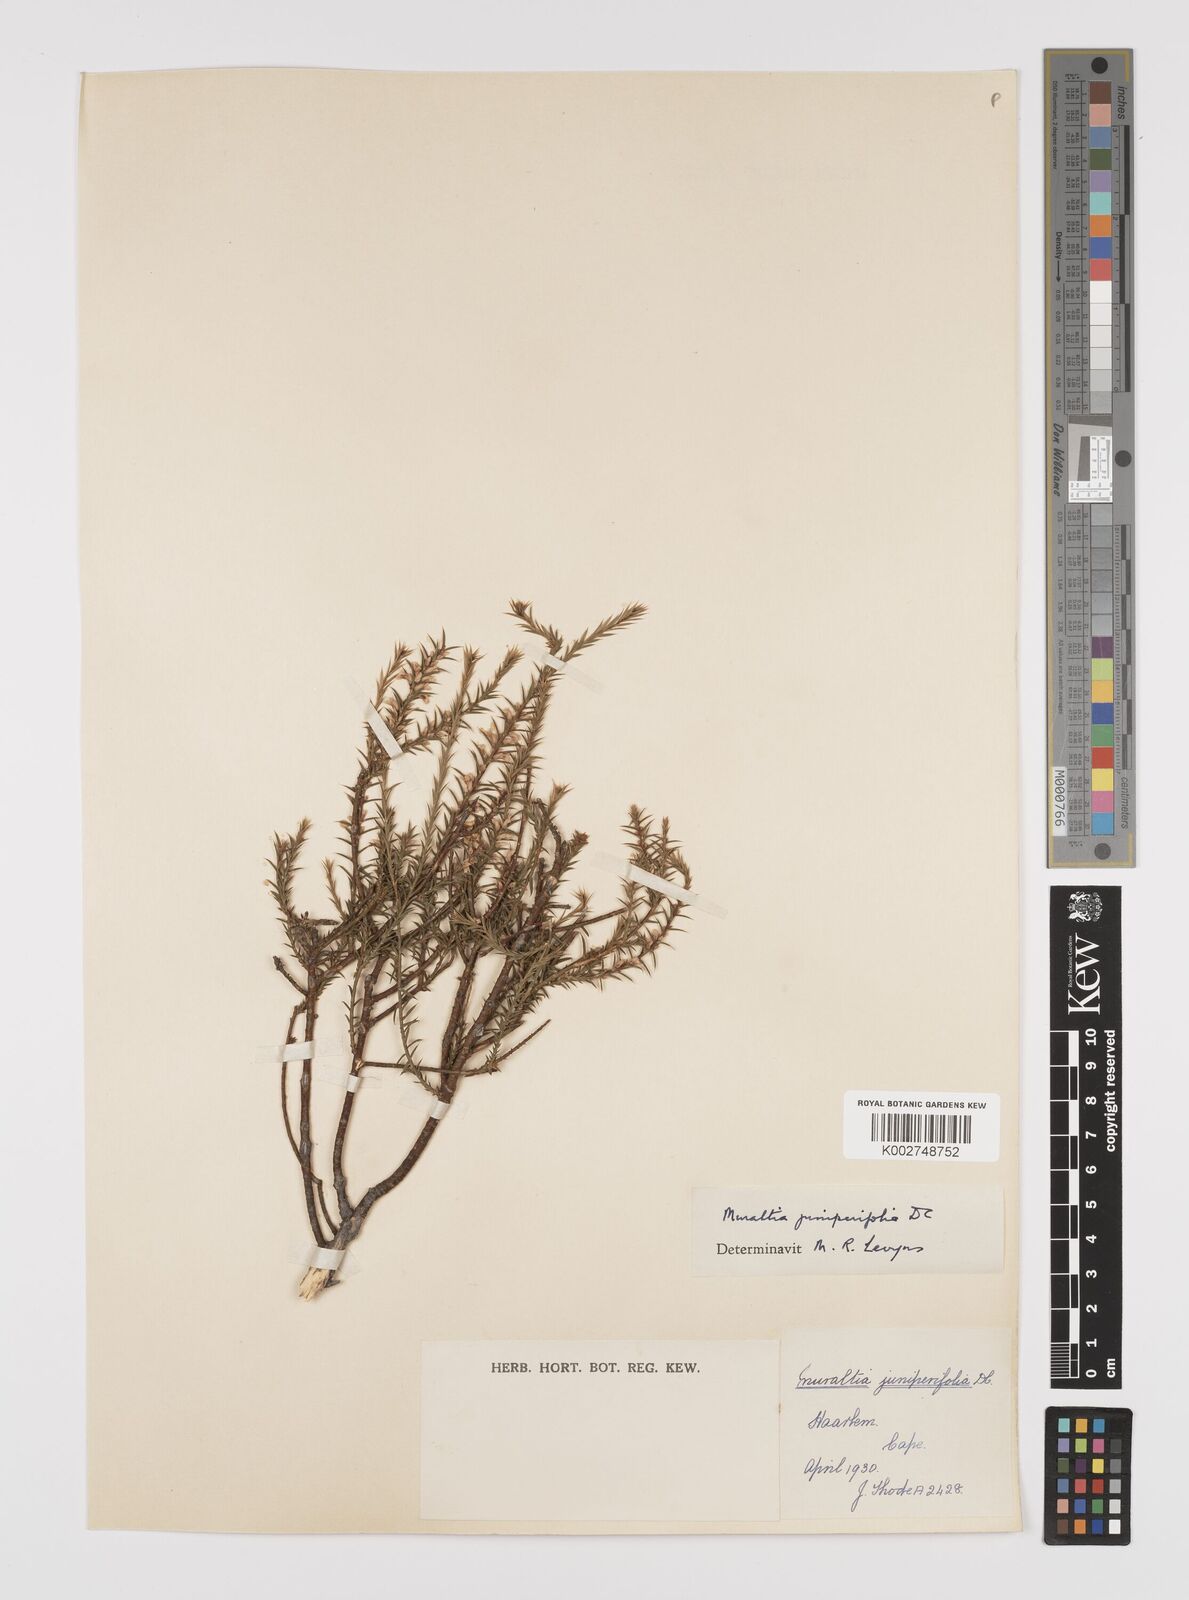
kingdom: Plantae
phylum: Tracheophyta
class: Magnoliopsida
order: Fabales
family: Polygalaceae
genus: Muraltia
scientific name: Muraltia juniperifolia
